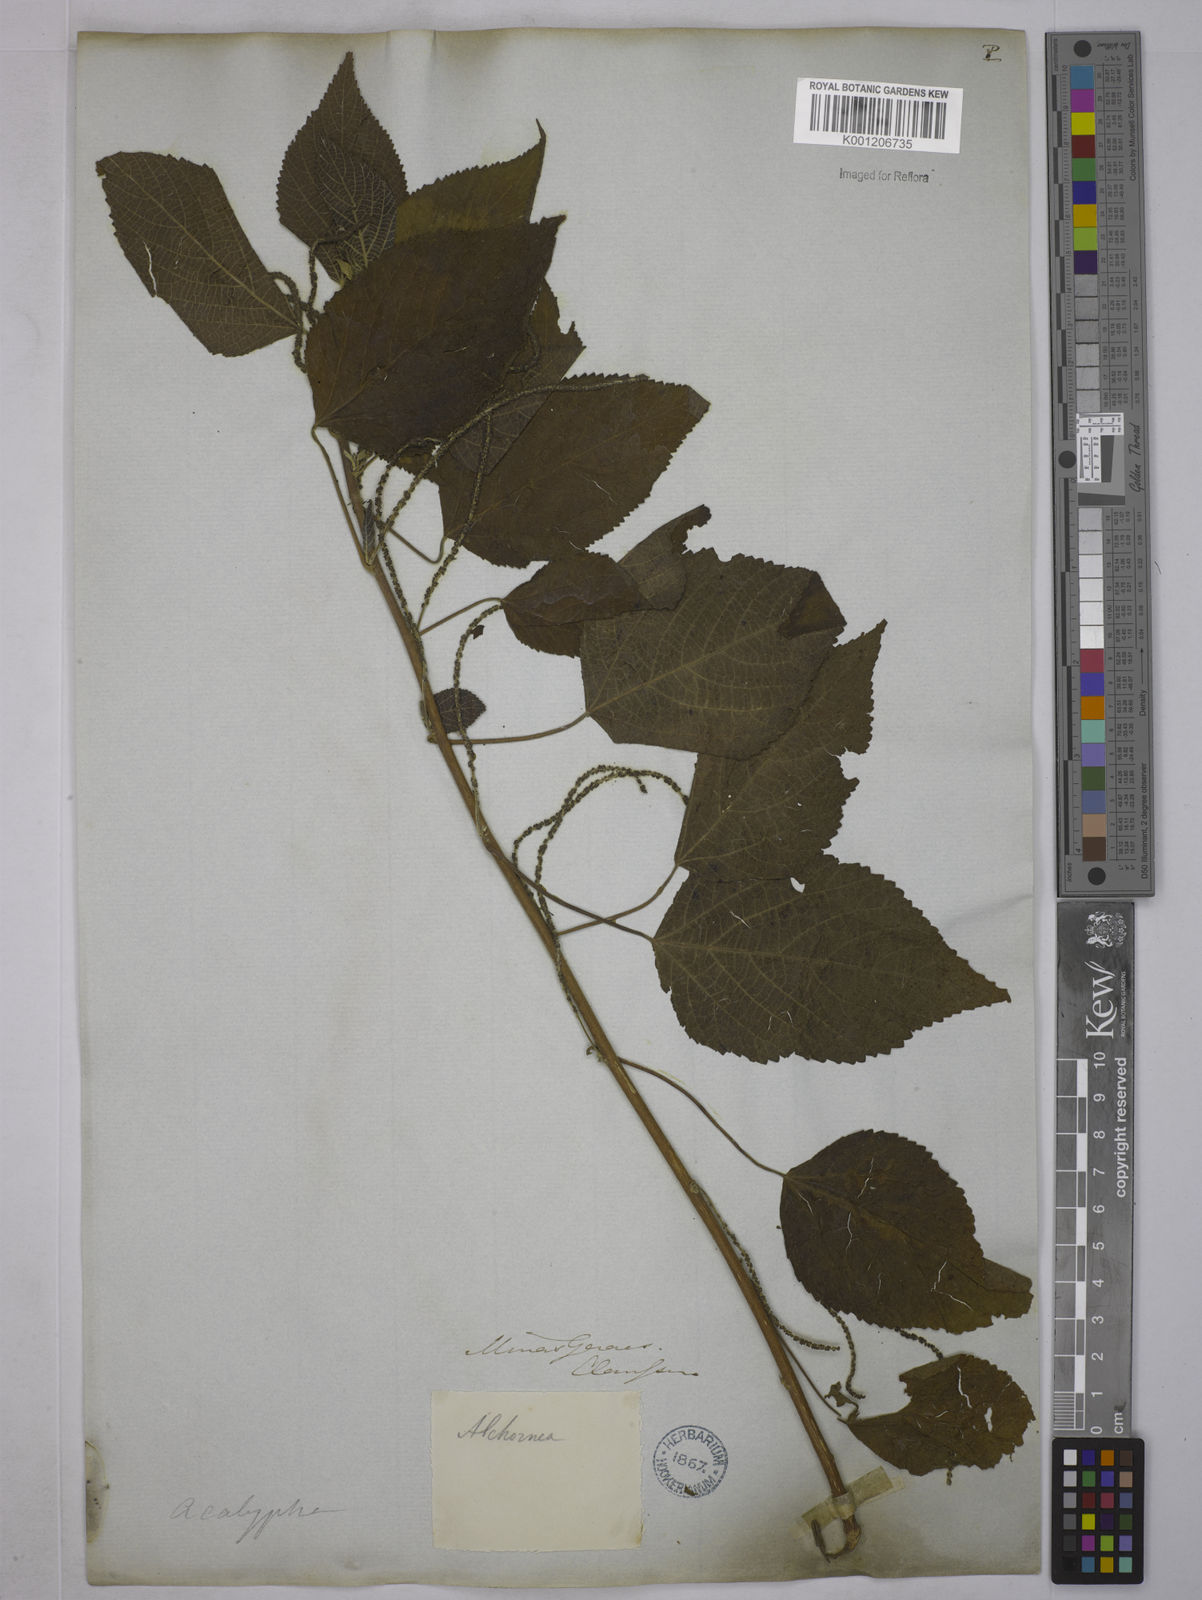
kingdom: Plantae
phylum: Tracheophyta
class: Magnoliopsida
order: Malpighiales
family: Euphorbiaceae
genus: Acalypha
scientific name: Acalypha weddelliana
